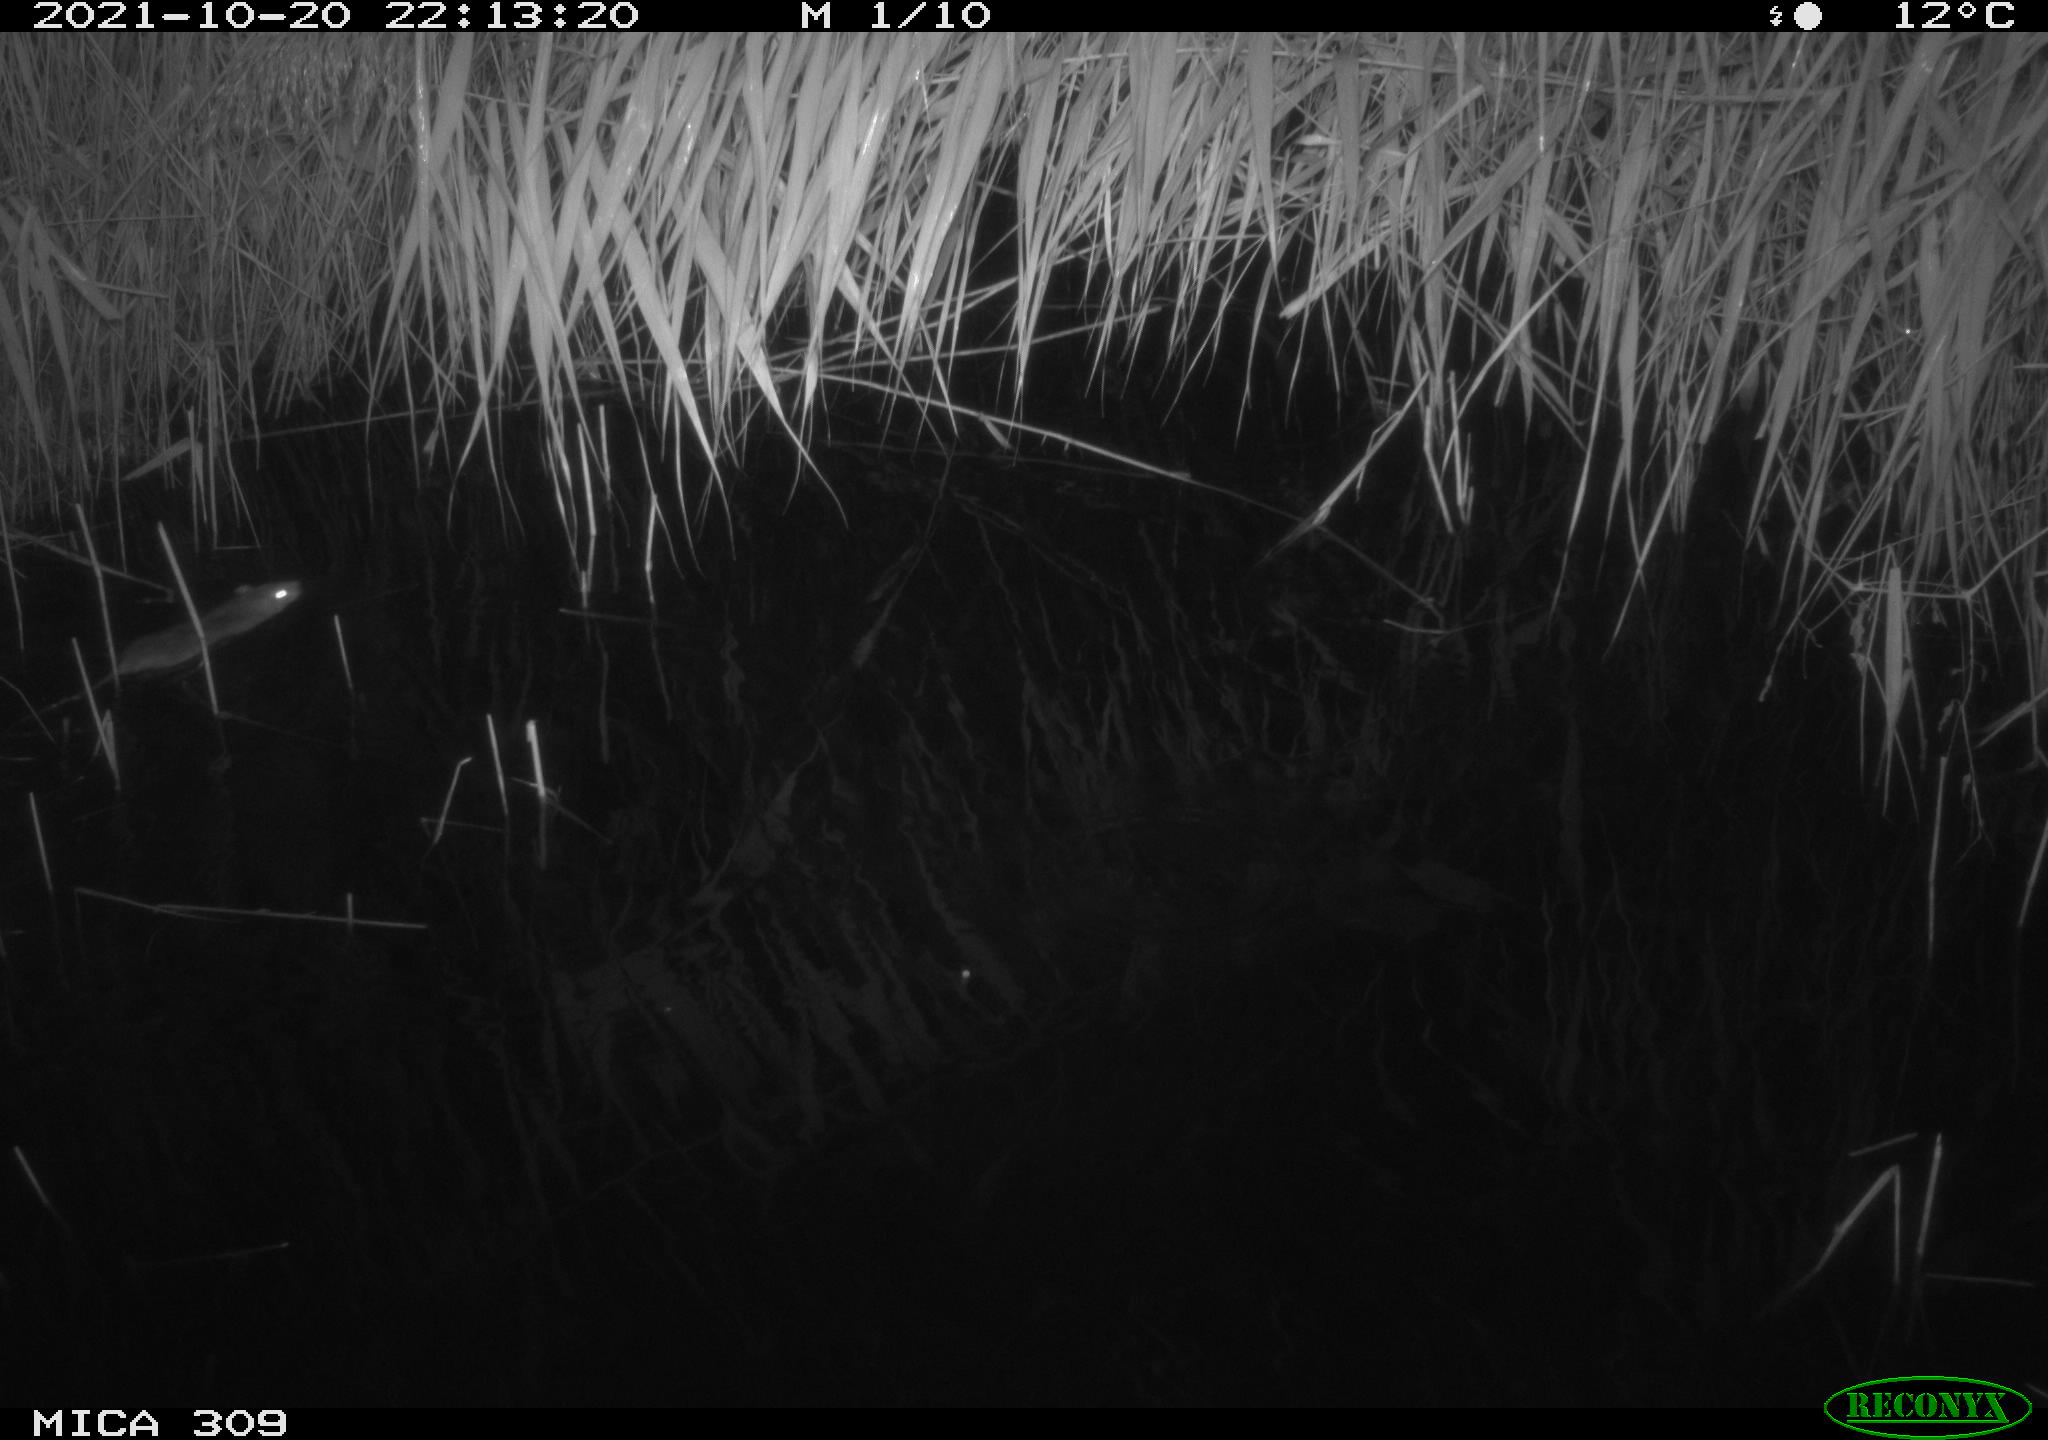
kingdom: Animalia
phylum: Chordata
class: Mammalia
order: Rodentia
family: Muridae
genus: Rattus
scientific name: Rattus norvegicus
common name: Brown rat
